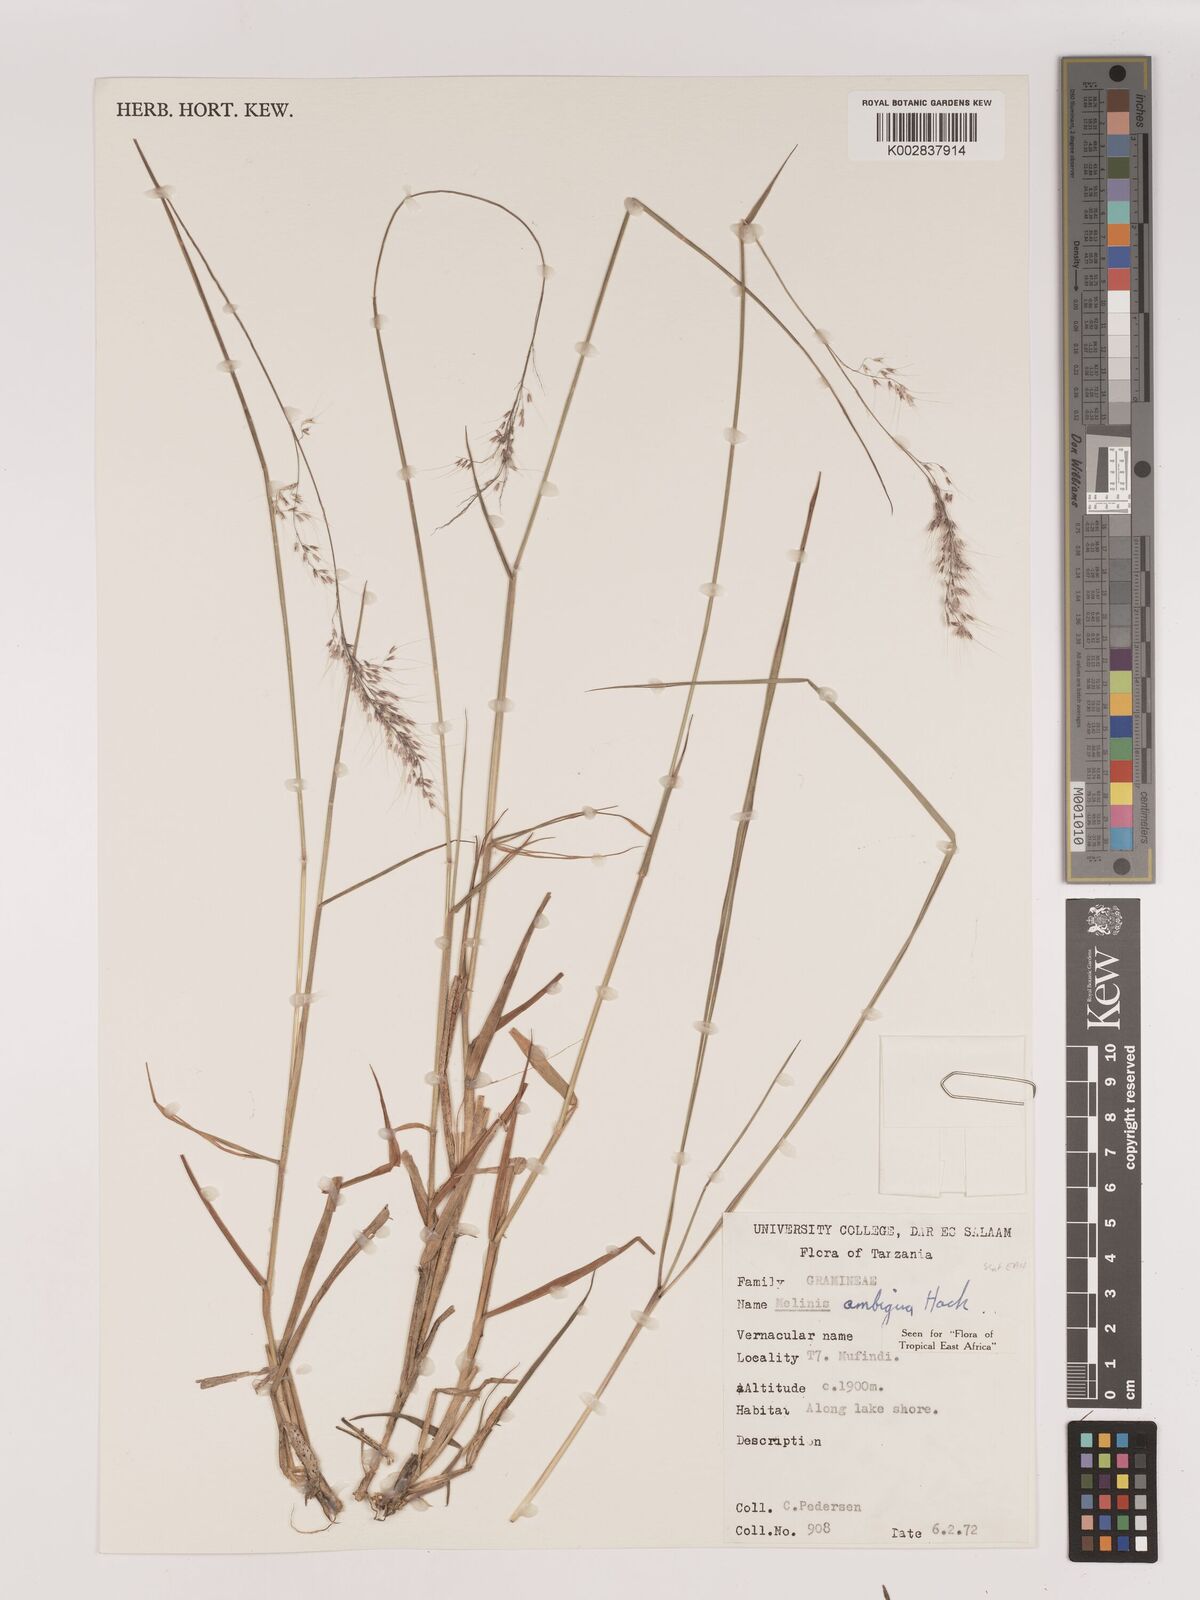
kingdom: Plantae
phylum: Tracheophyta
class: Liliopsida
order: Poales
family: Poaceae
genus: Melinis
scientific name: Melinis ambigua
